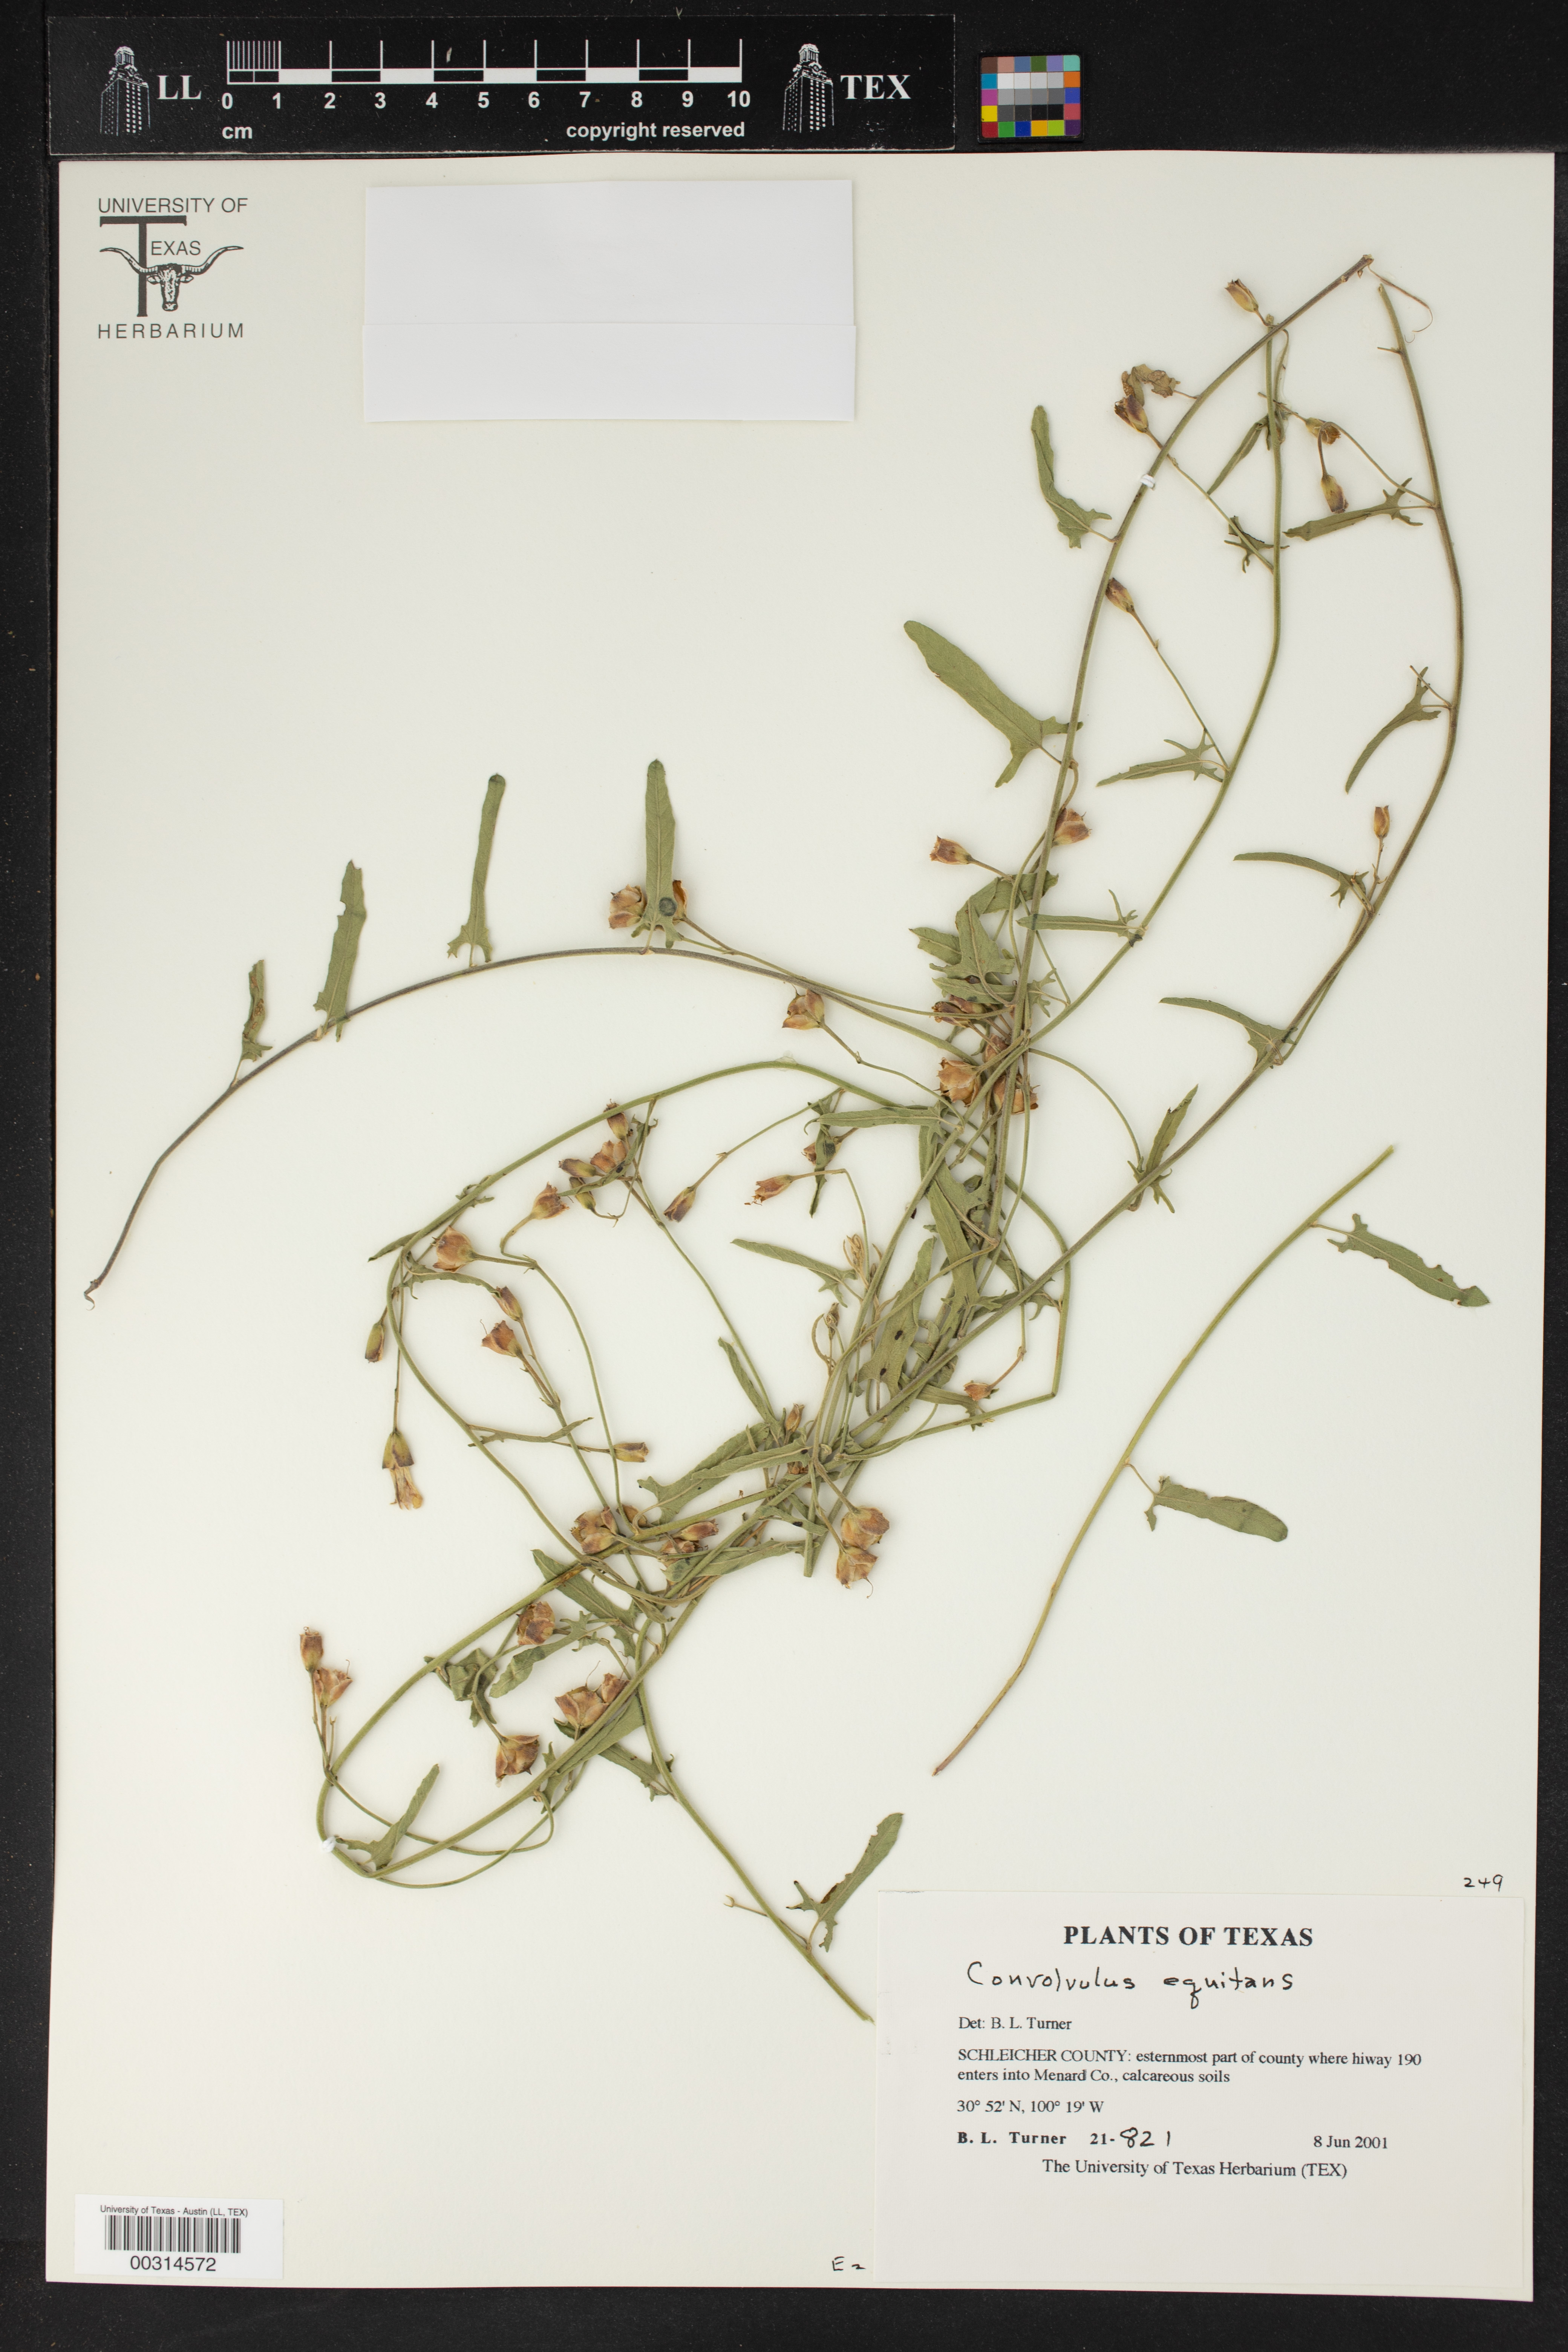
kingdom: Plantae
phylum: Tracheophyta
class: Magnoliopsida
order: Solanales
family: Convolvulaceae
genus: Convolvulus
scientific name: Convolvulus equitans
